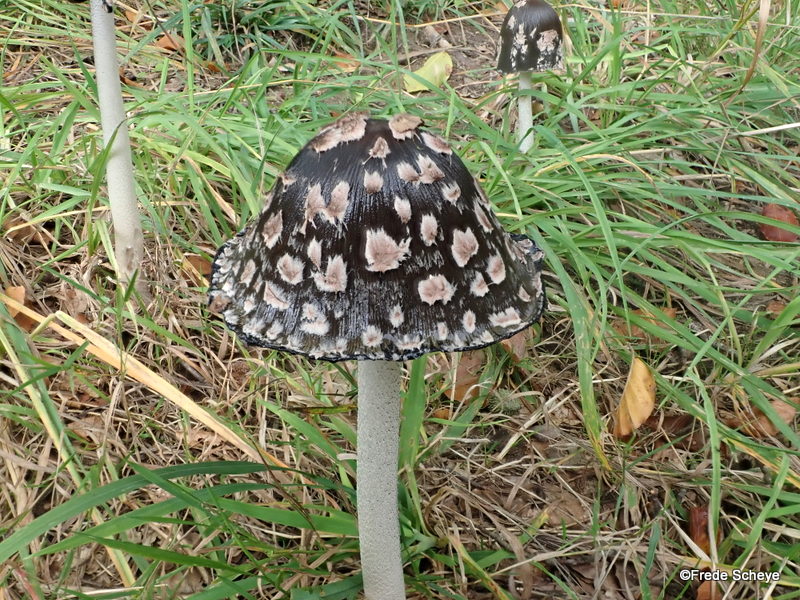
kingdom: Fungi
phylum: Basidiomycota
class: Agaricomycetes
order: Agaricales
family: Psathyrellaceae
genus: Coprinopsis
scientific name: Coprinopsis picacea
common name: skade-blækhat
